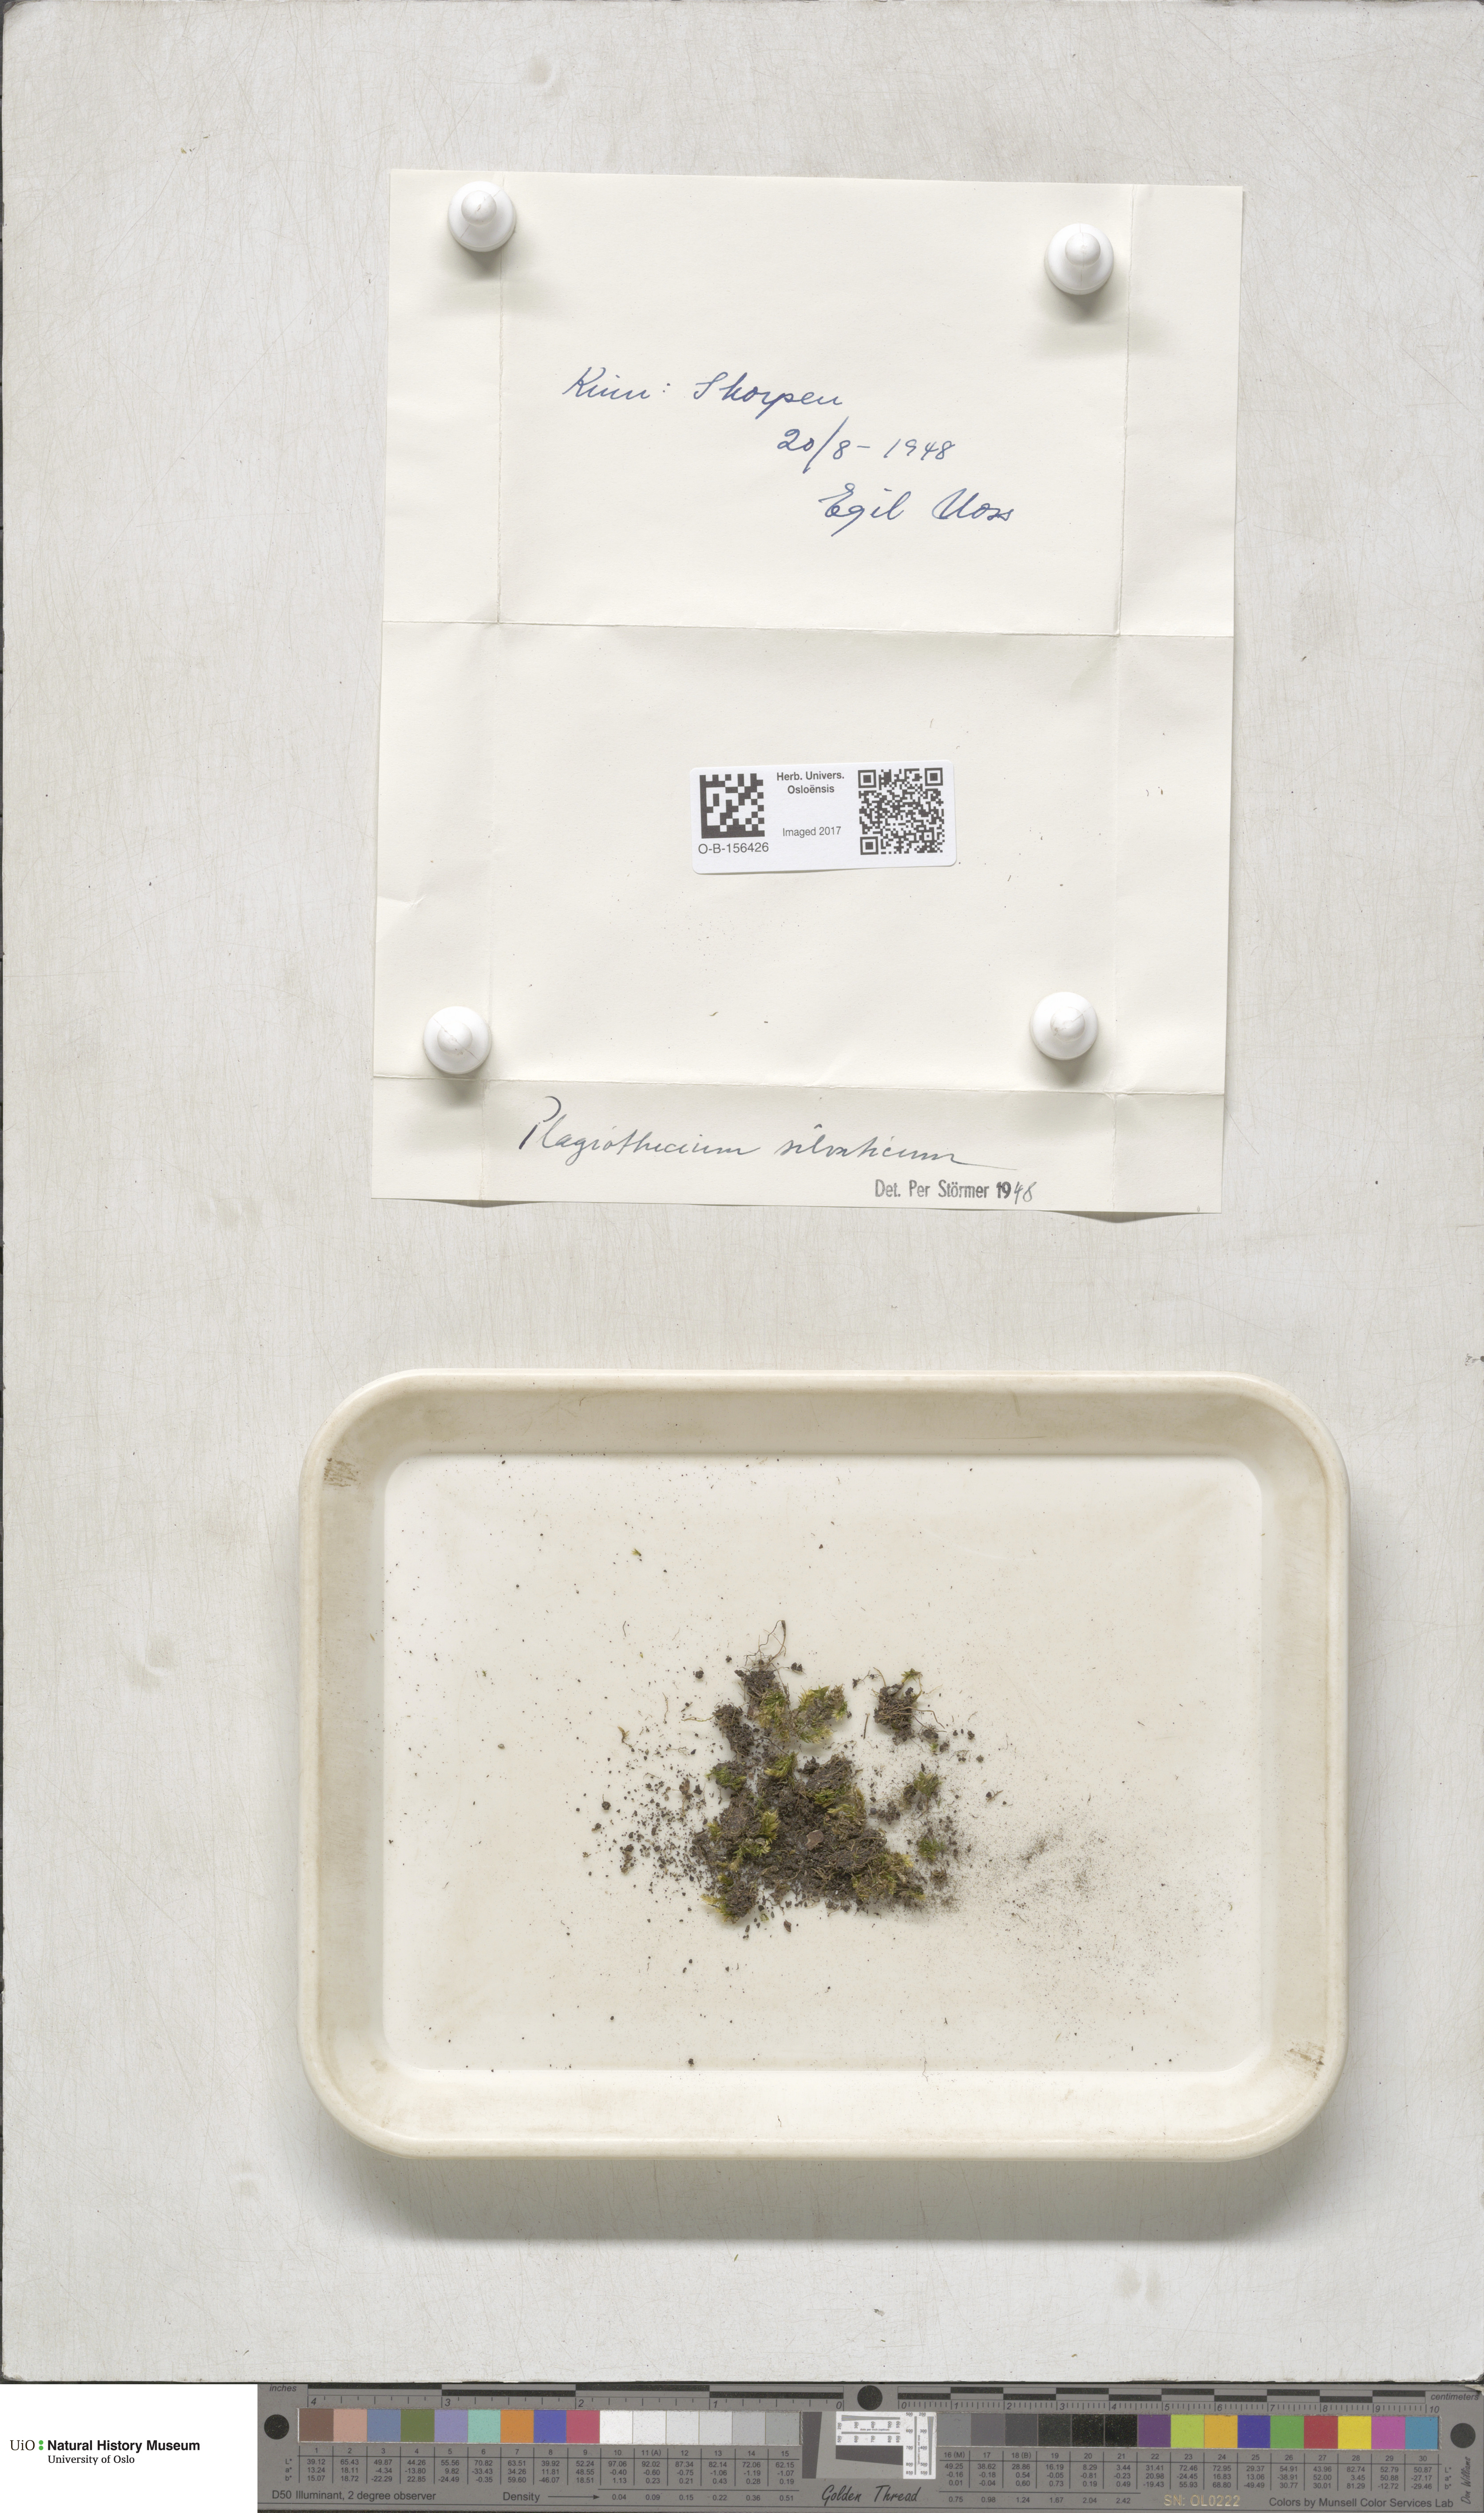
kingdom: Plantae
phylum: Bryophyta
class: Bryopsida
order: Hypnales
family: Plagiotheciaceae
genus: Plagiothecium
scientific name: Plagiothecium nemorale
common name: Woodsy silk-moss
